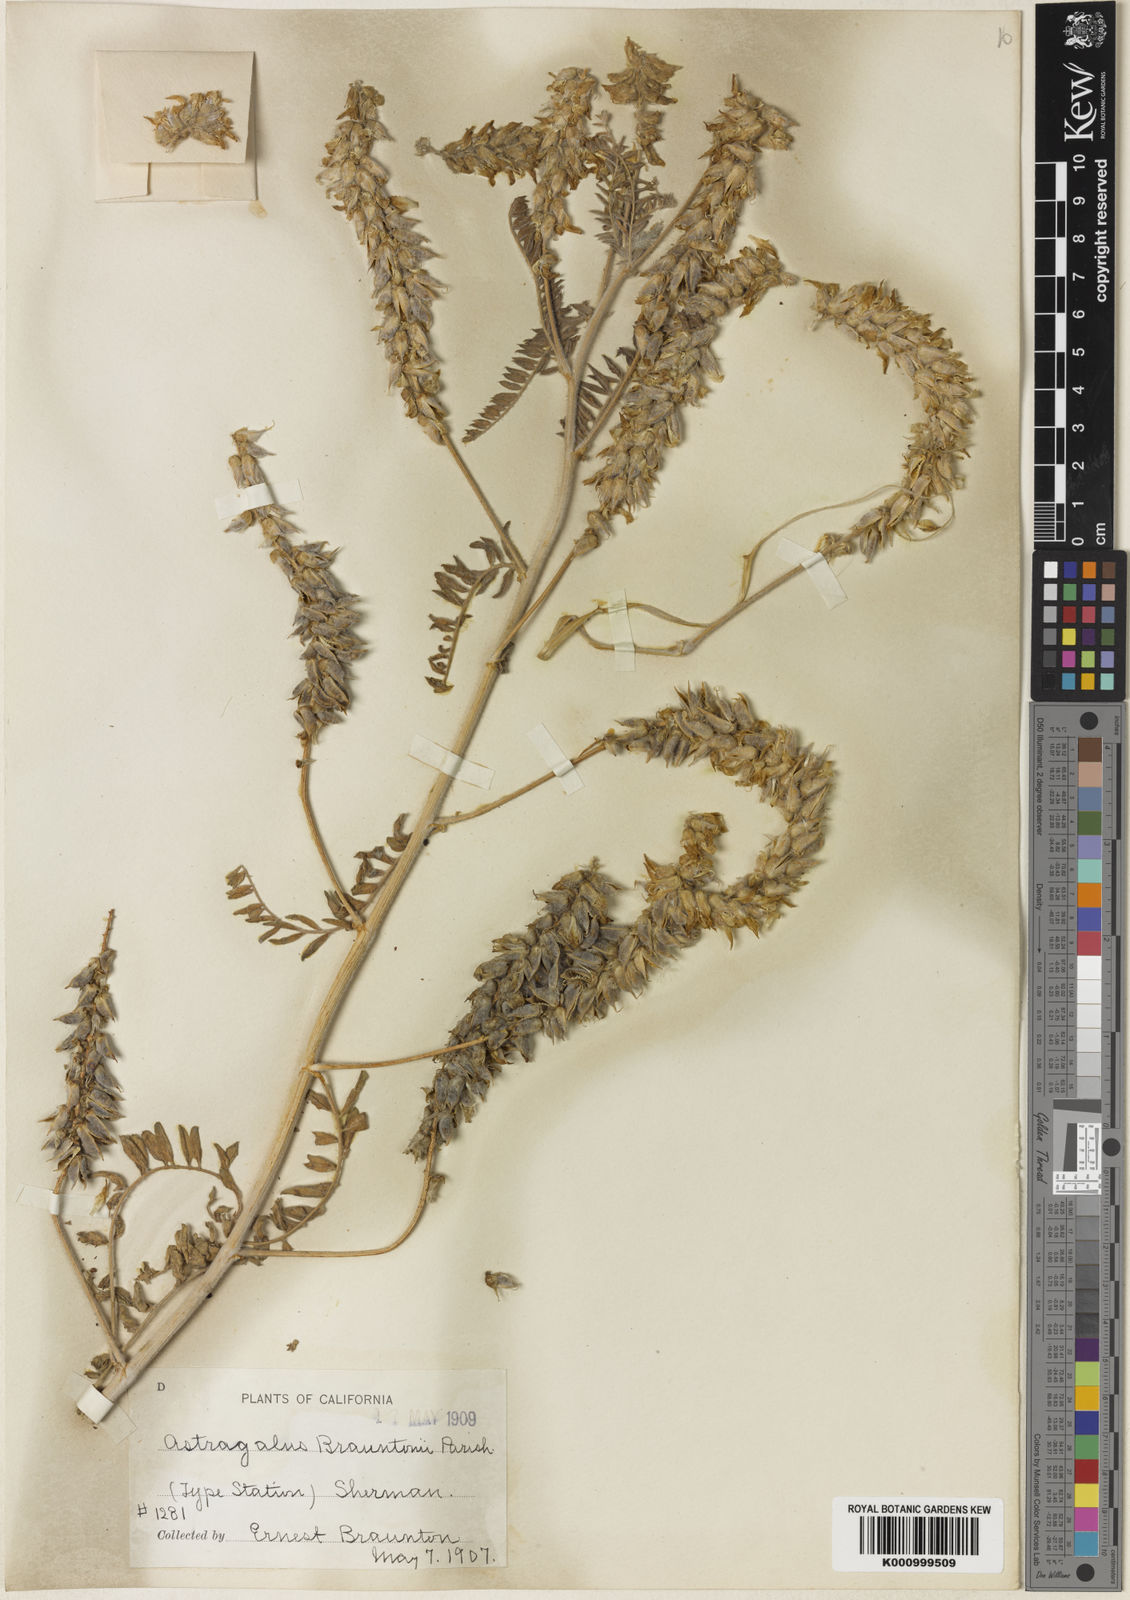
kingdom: Plantae
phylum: Tracheophyta
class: Magnoliopsida
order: Fabales
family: Fabaceae
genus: Astragalus
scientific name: Astragalus brauntonii
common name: Braunton's milk-vetch
